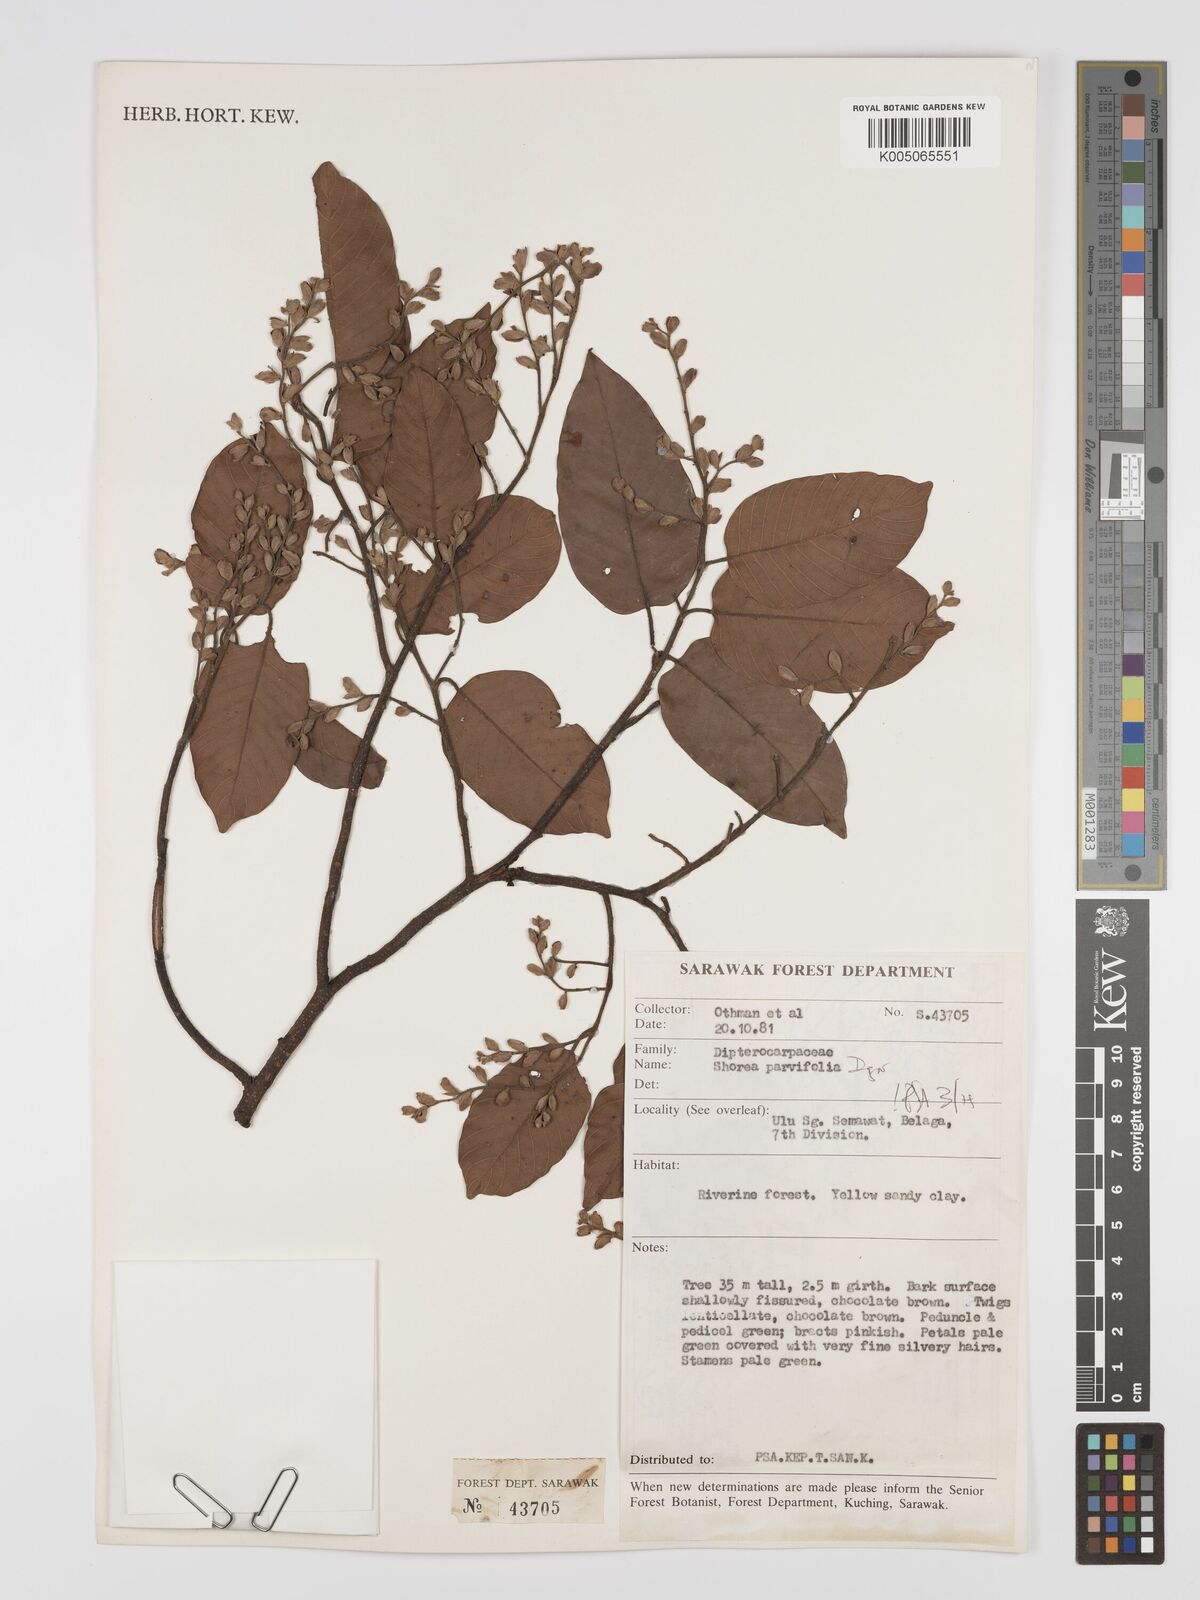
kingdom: Plantae
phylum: Tracheophyta
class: Magnoliopsida
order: Malvales
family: Dipterocarpaceae
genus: Shorea
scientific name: Shorea parvifolia
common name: Light red meranti
